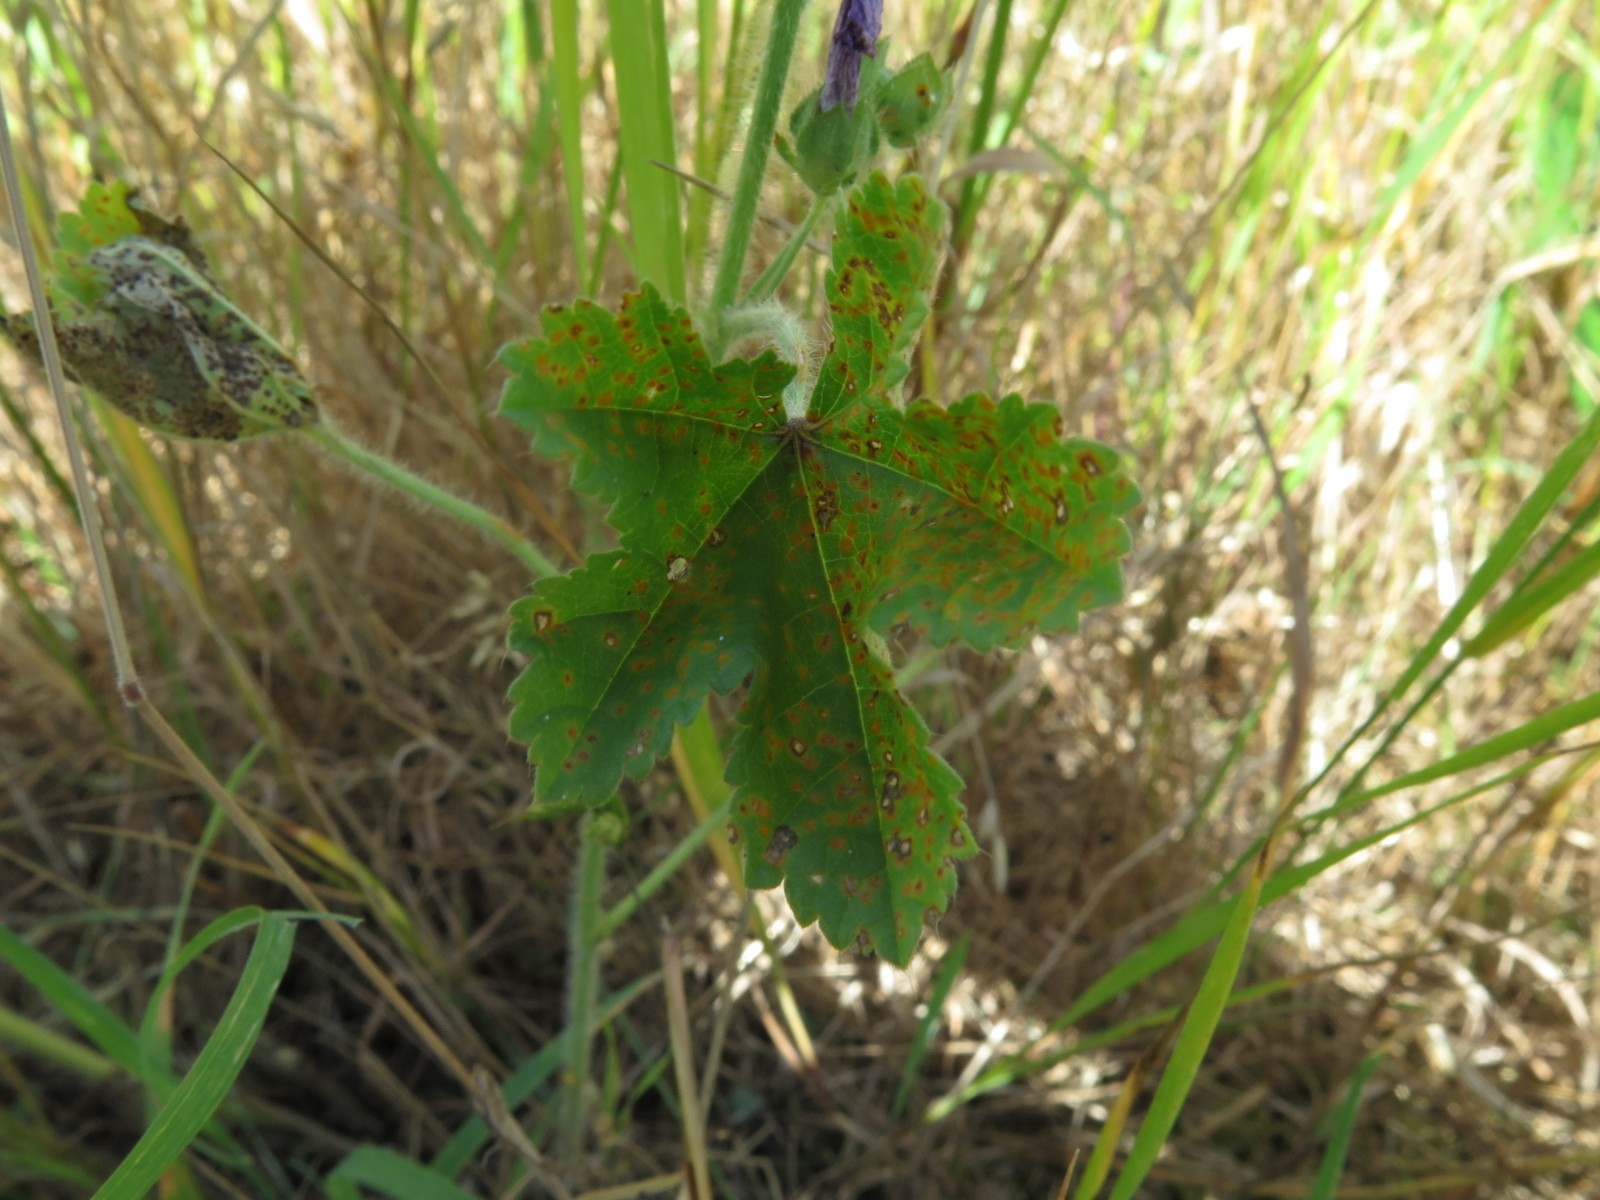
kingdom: Fungi
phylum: Basidiomycota
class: Pucciniomycetes
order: Pucciniales
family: Pucciniaceae
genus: Puccinia
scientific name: Puccinia malvacearum
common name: stokrose-tvecellerust
